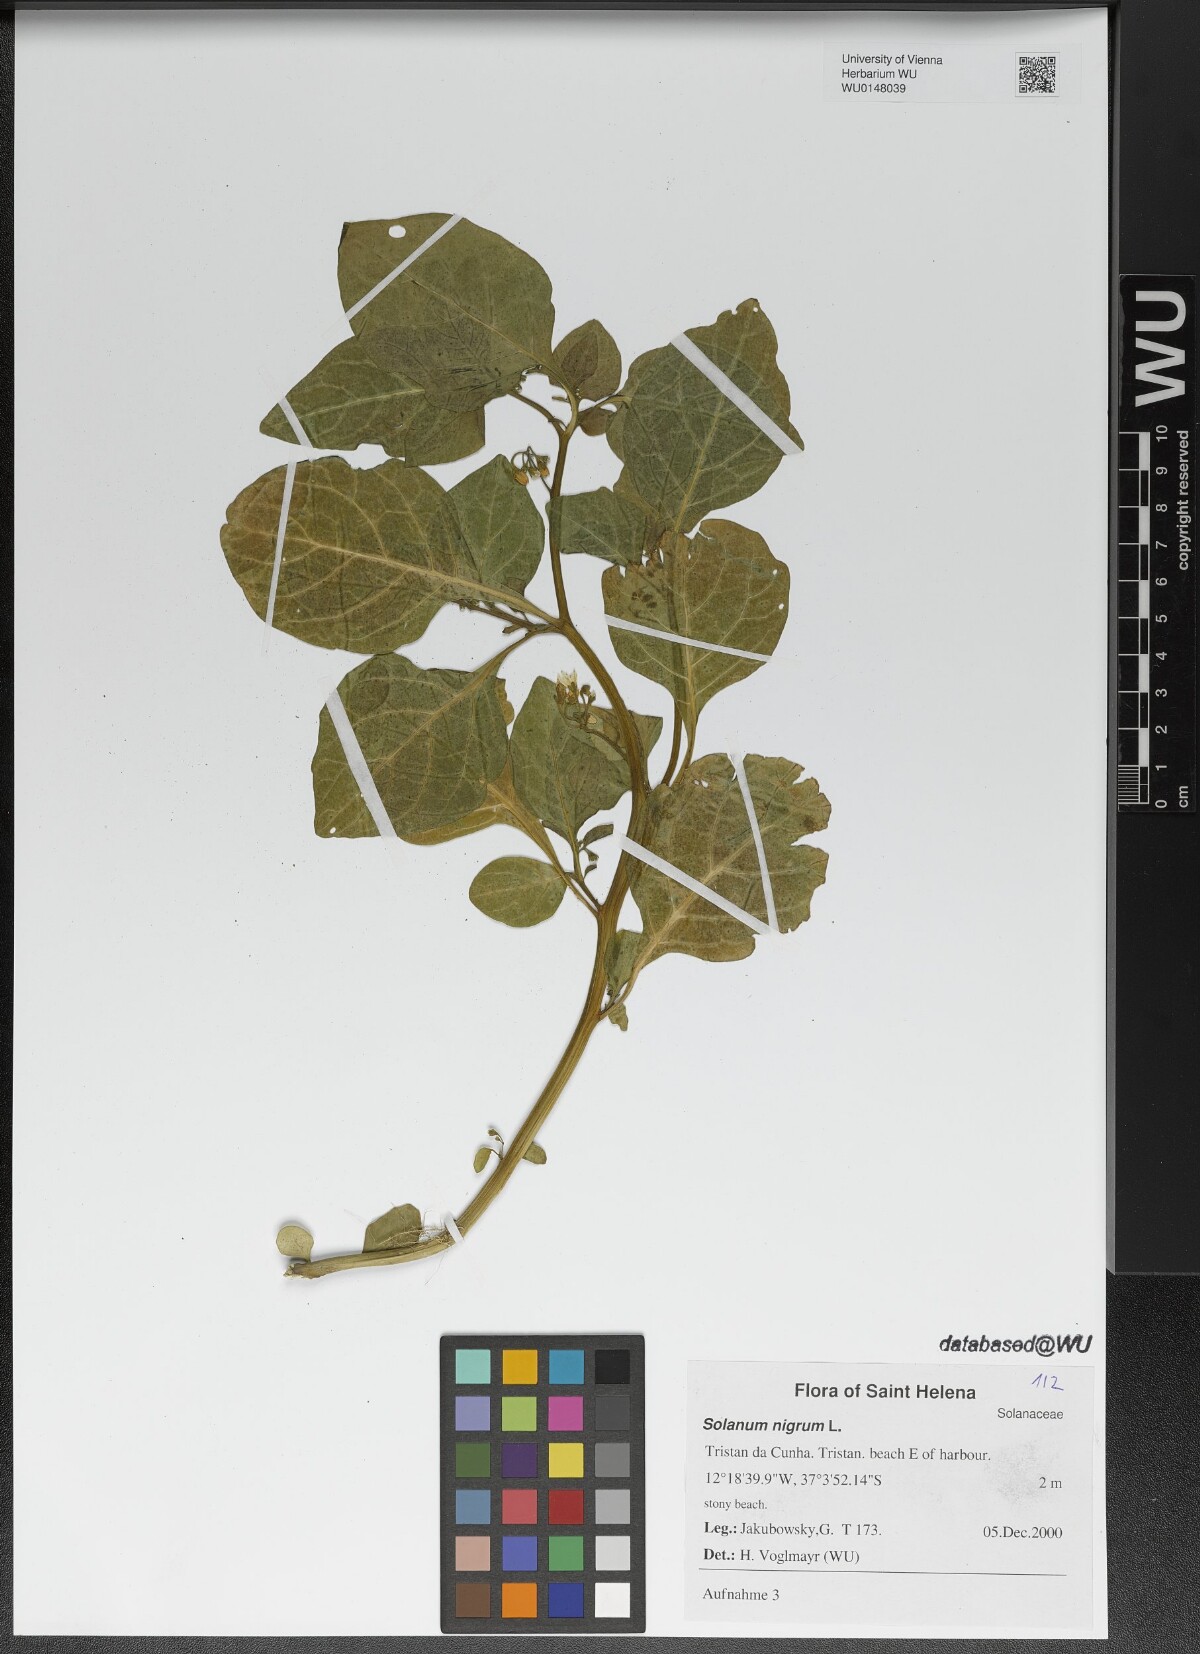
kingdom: Plantae
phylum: Tracheophyta
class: Magnoliopsida
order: Solanales
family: Solanaceae
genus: Solanum
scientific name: Solanum nigrum
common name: Black nightshade
